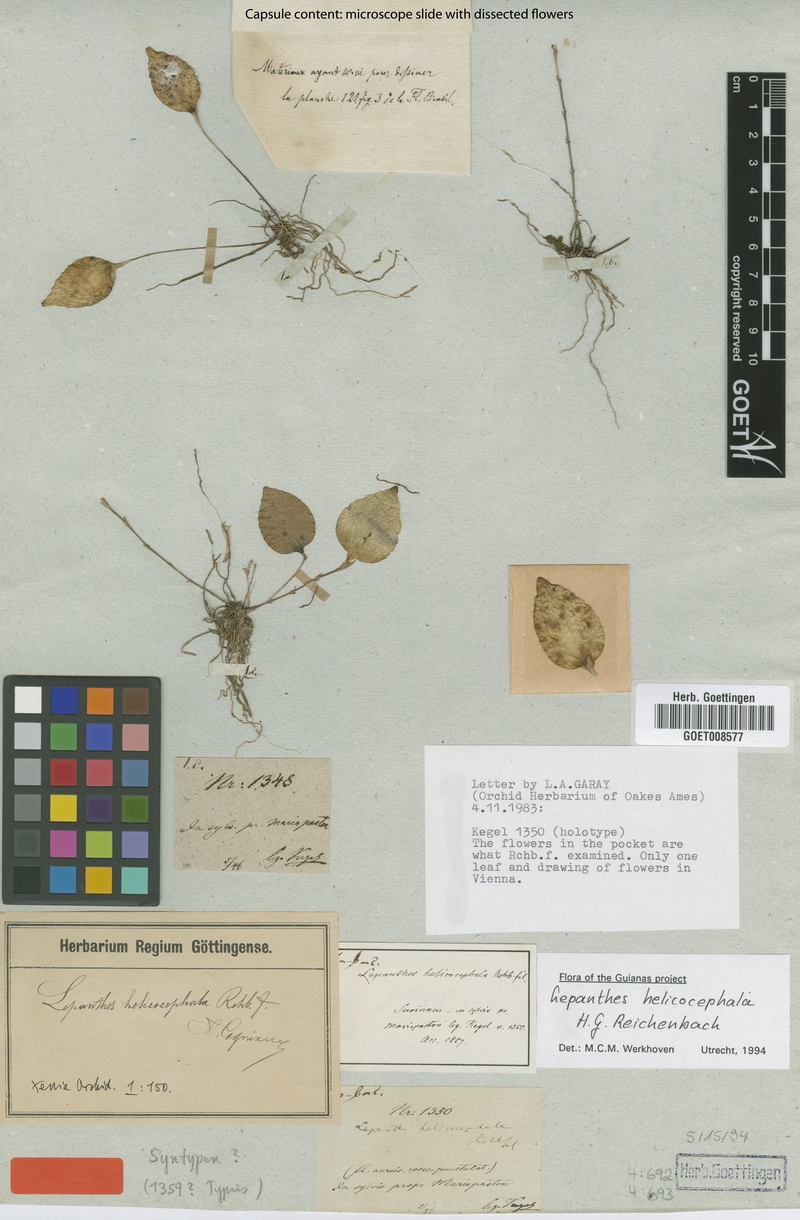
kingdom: Plantae
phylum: Tracheophyta
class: Liliopsida
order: Asparagales
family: Orchidaceae
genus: Lepanthes
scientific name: Lepanthes helicocephala
